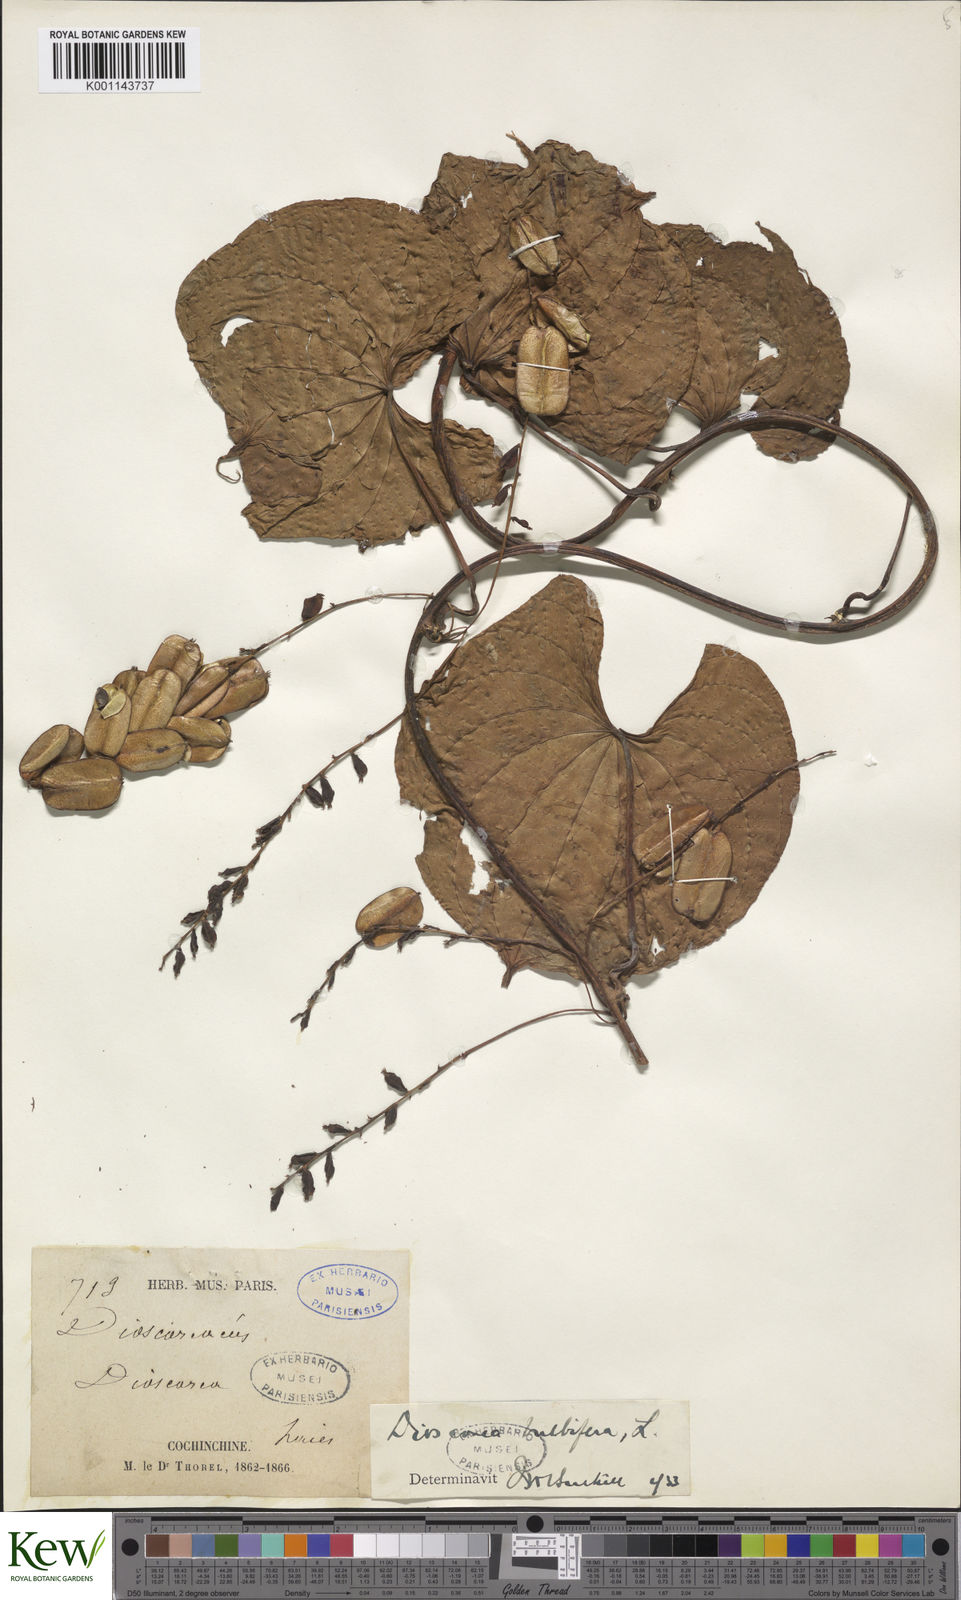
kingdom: Plantae
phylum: Tracheophyta
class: Liliopsida
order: Dioscoreales
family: Dioscoreaceae
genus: Dioscorea
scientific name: Dioscorea bulbifera
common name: Air yam
